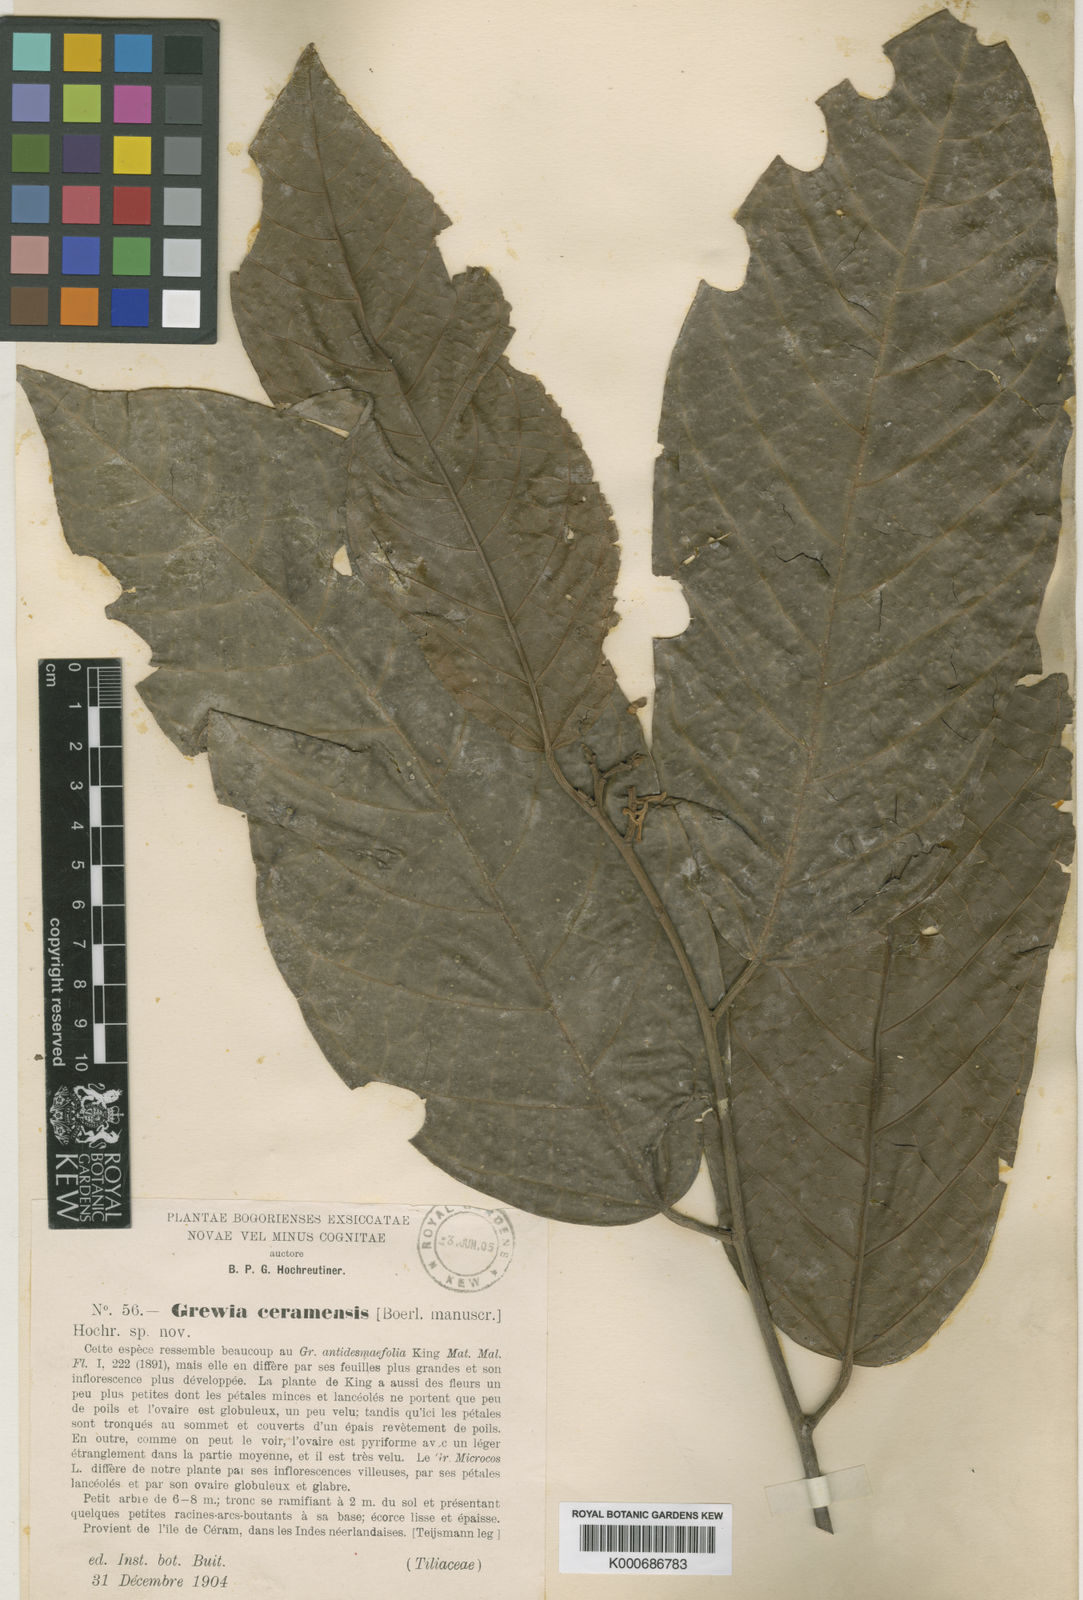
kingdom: Plantae
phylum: Tracheophyta
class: Magnoliopsida
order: Malvales
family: Malvaceae
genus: Microcos
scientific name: Microcos ceramensis
